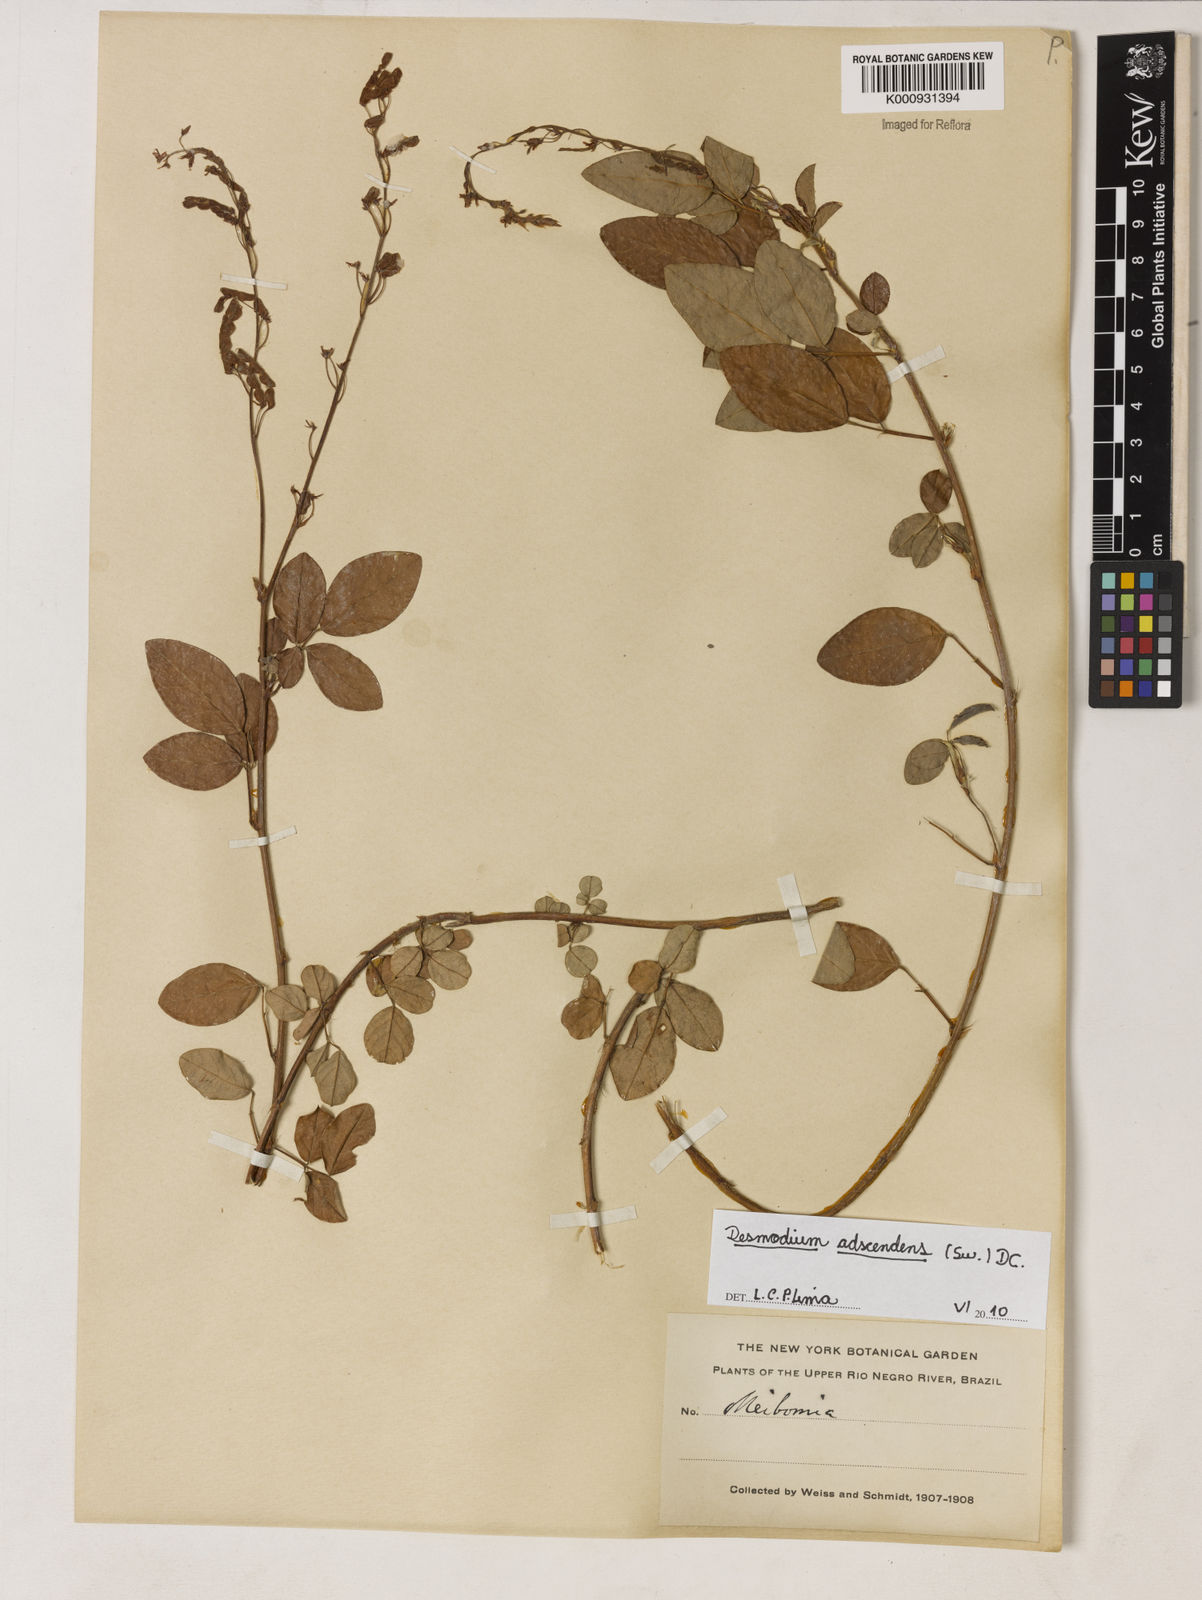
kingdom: Plantae
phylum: Tracheophyta
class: Magnoliopsida
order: Fabales
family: Fabaceae
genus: Grona
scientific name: Grona adscendens
